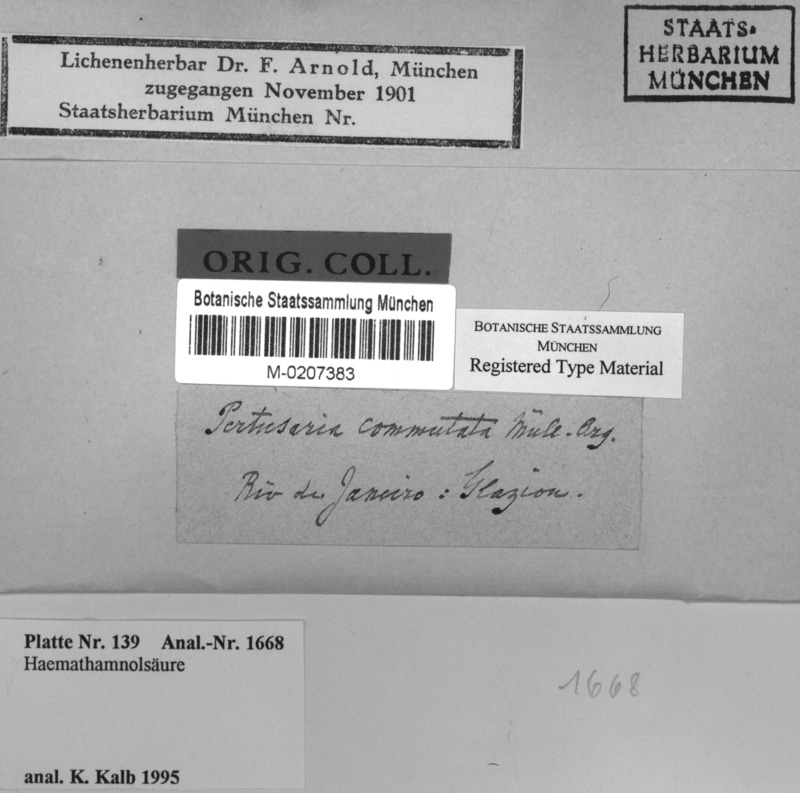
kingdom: Fungi
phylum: Ascomycota
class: Lecanoromycetes
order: Pertusariales
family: Pertusariaceae
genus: Lepra
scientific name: Lepra commutata
